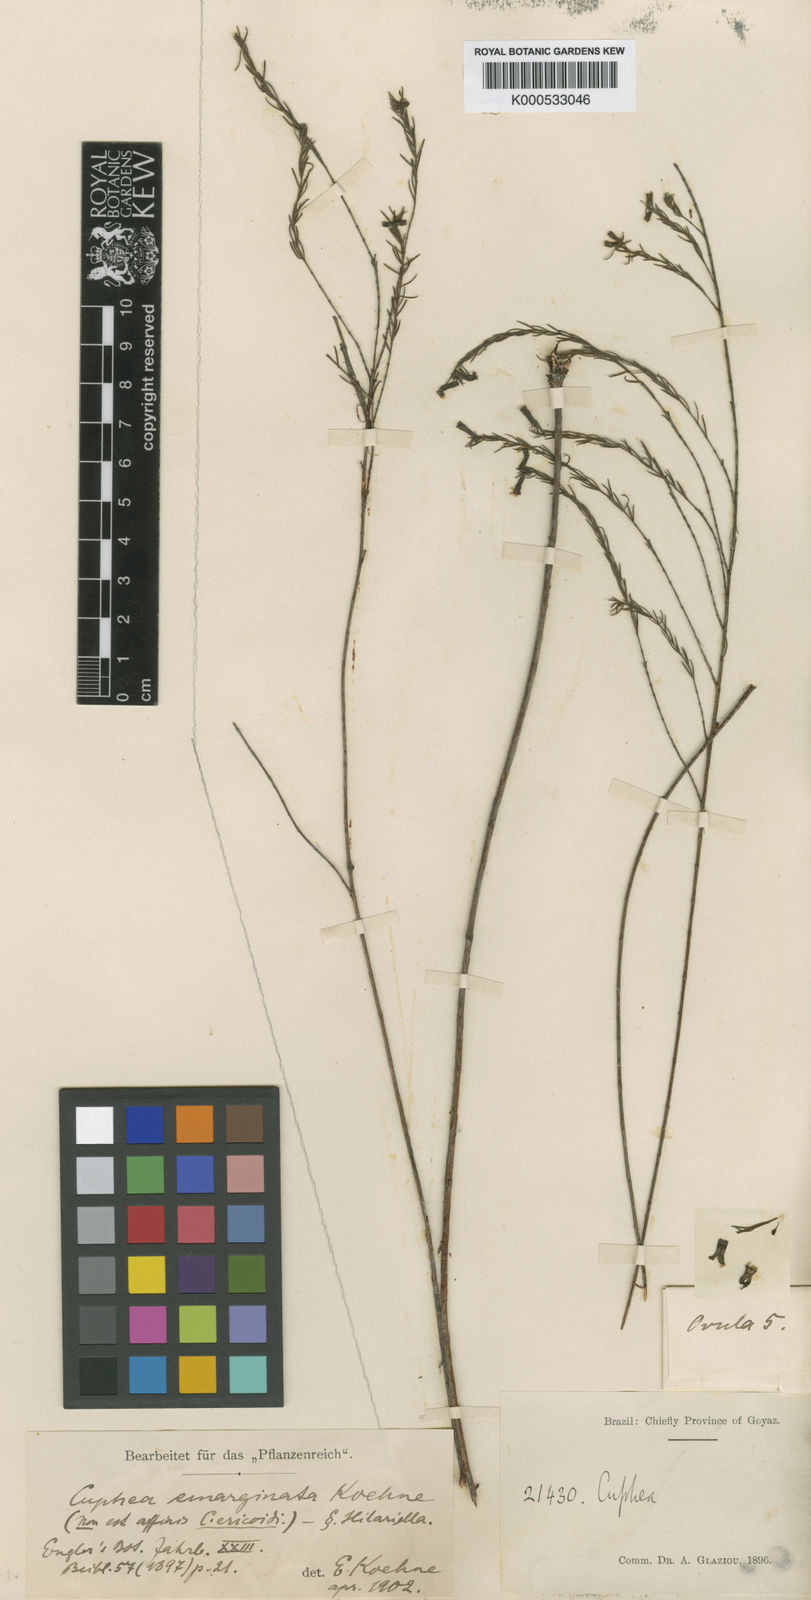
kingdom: Plantae
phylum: Tracheophyta
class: Magnoliopsida
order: Myrtales
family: Lythraceae
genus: Cuphea
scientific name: Cuphea acicularis
